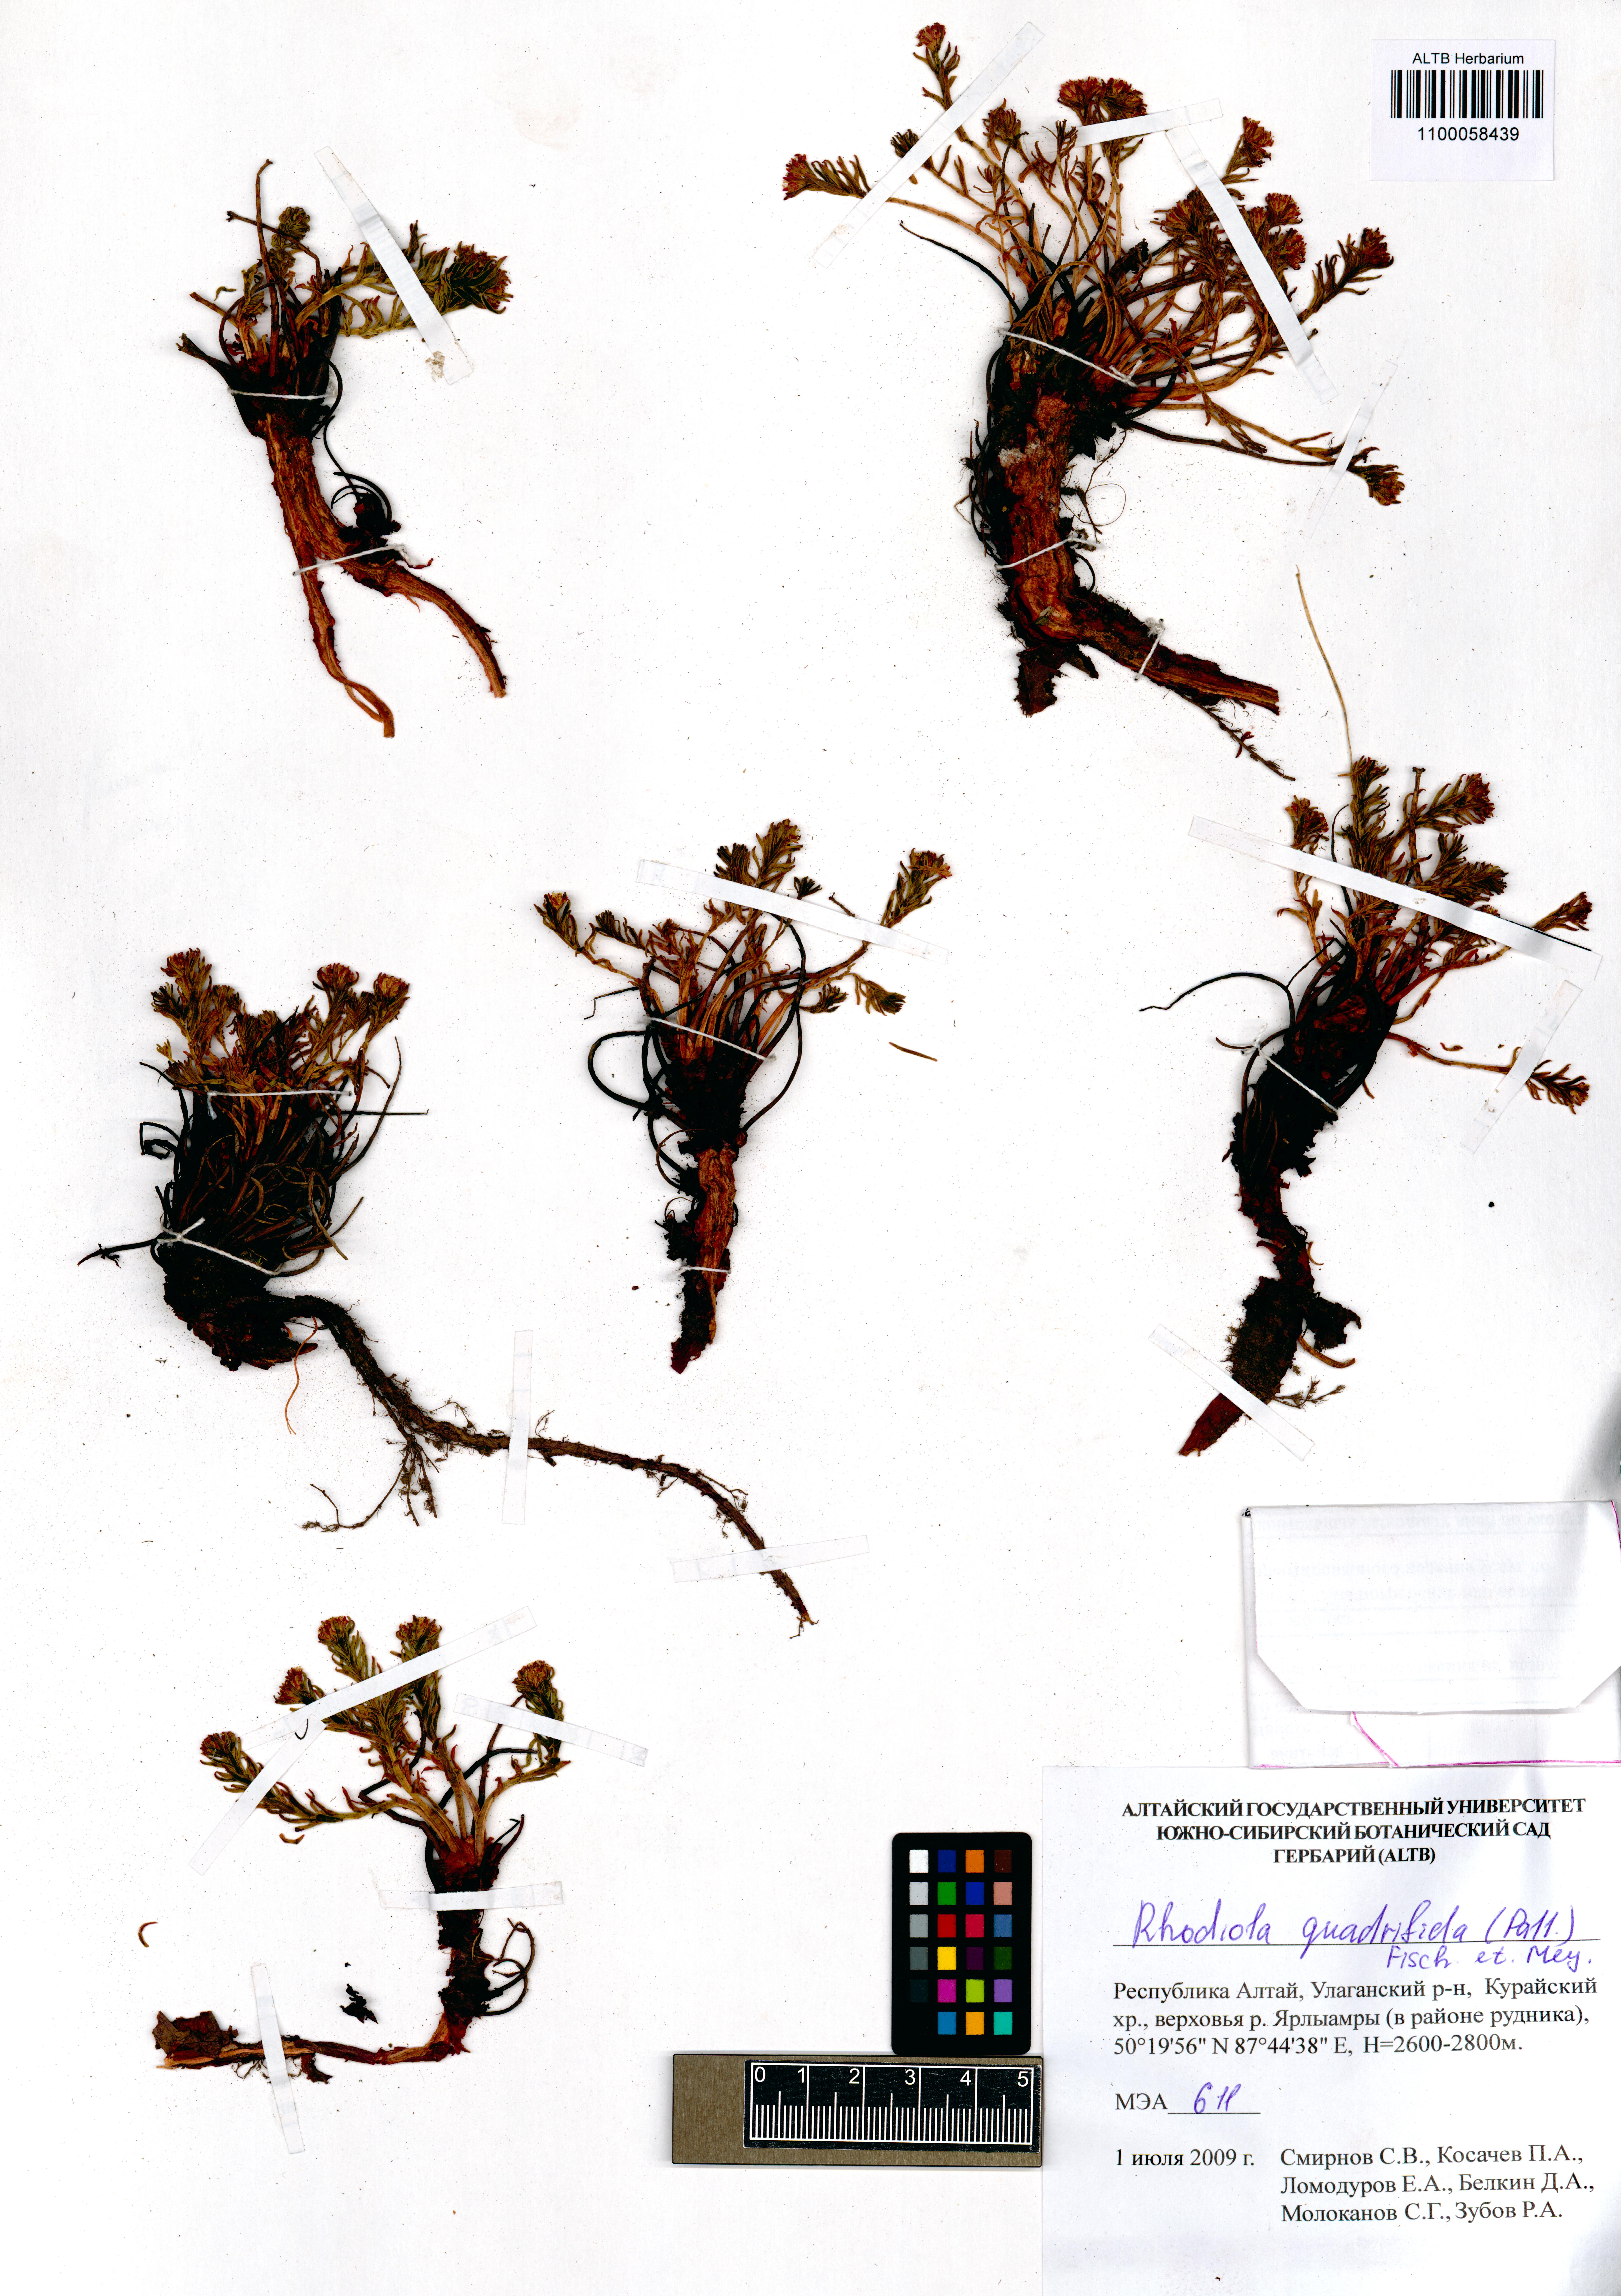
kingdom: Plantae
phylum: Tracheophyta
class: Magnoliopsida
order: Saxifragales
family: Crassulaceae
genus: Rhodiola
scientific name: Rhodiola quadrifida
